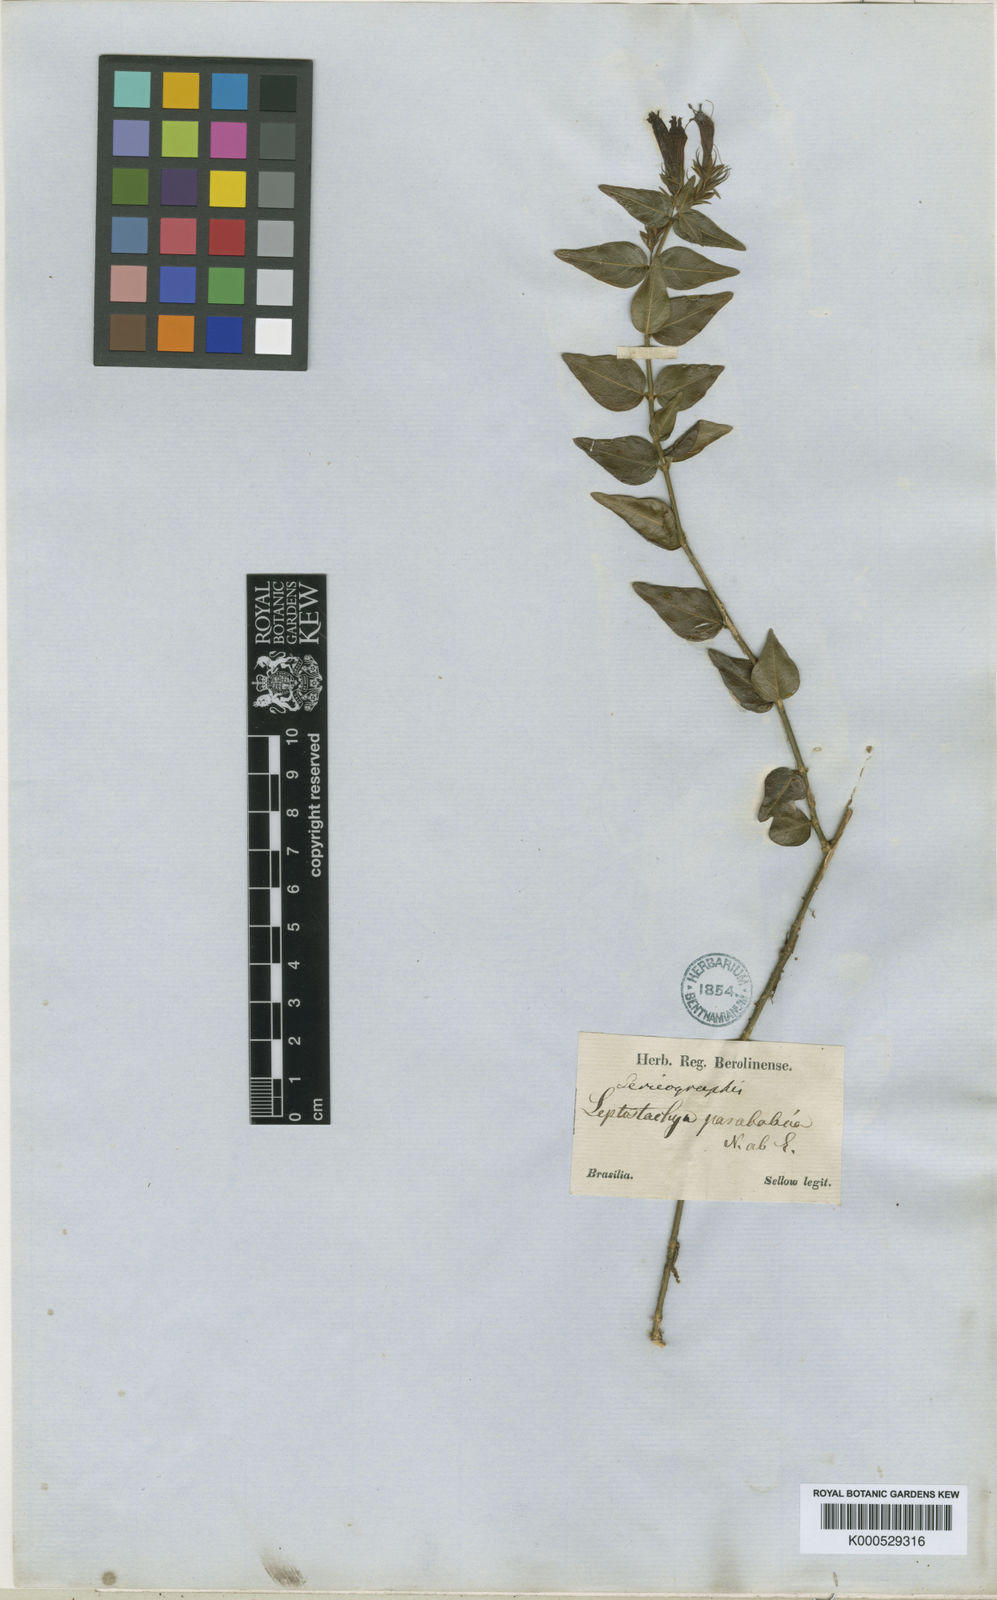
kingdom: Plantae
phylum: Tracheophyta
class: Magnoliopsida
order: Lamiales
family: Acanthaceae
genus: Justicia
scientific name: Justicia parabolica
